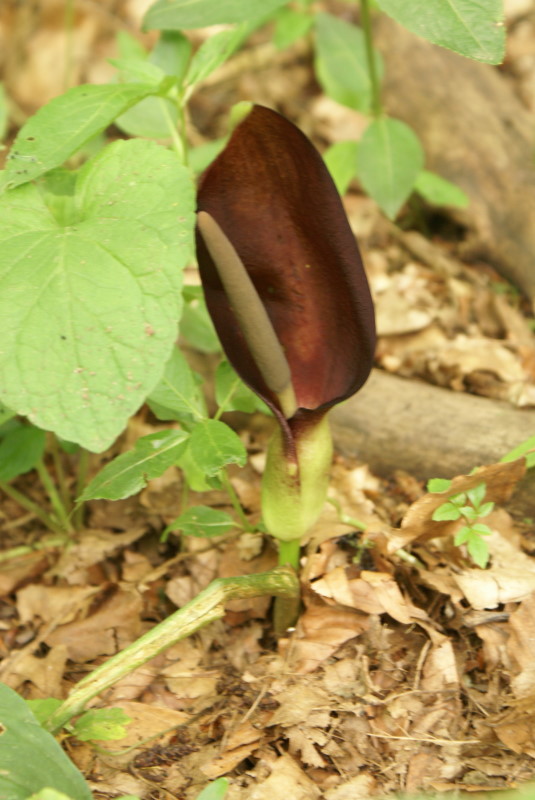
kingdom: Plantae
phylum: Tracheophyta
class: Liliopsida
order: Alismatales
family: Araceae
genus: Arum
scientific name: Arum orientale
